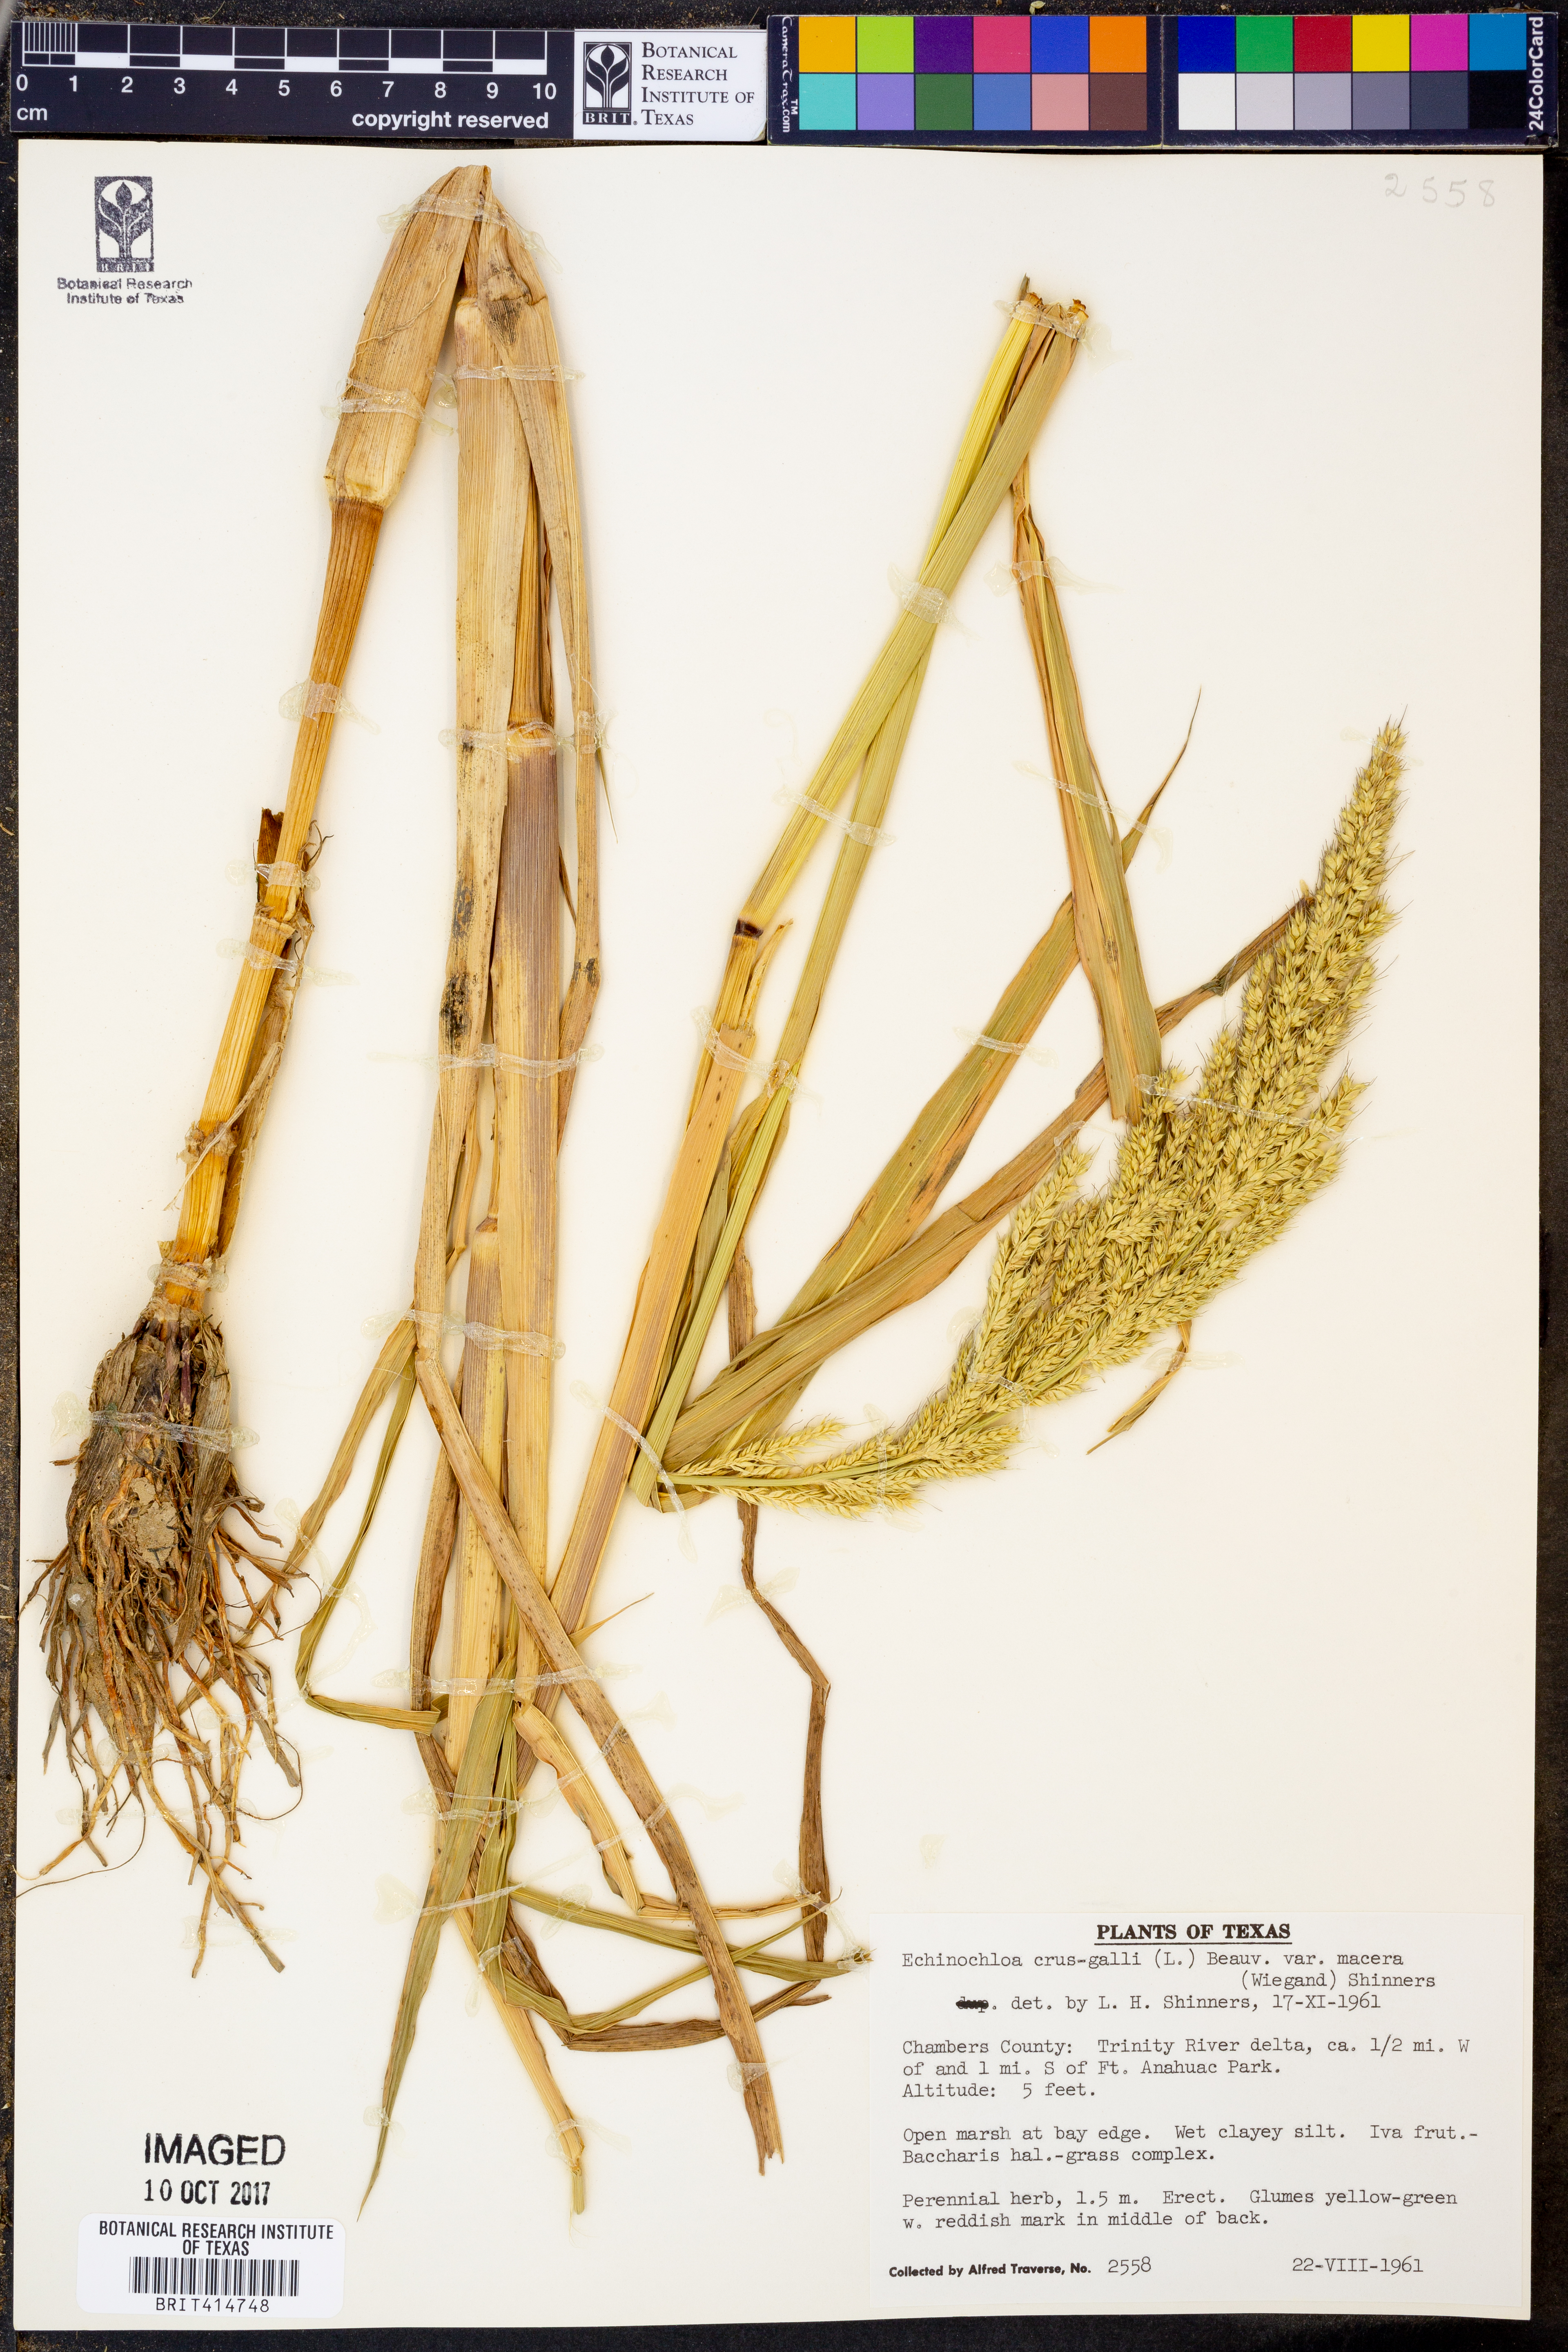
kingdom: Plantae
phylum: Tracheophyta
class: Liliopsida
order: Poales
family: Poaceae
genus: Echinochloa
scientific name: Echinochloa crus-pavonis
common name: Gulf cockspur grass
